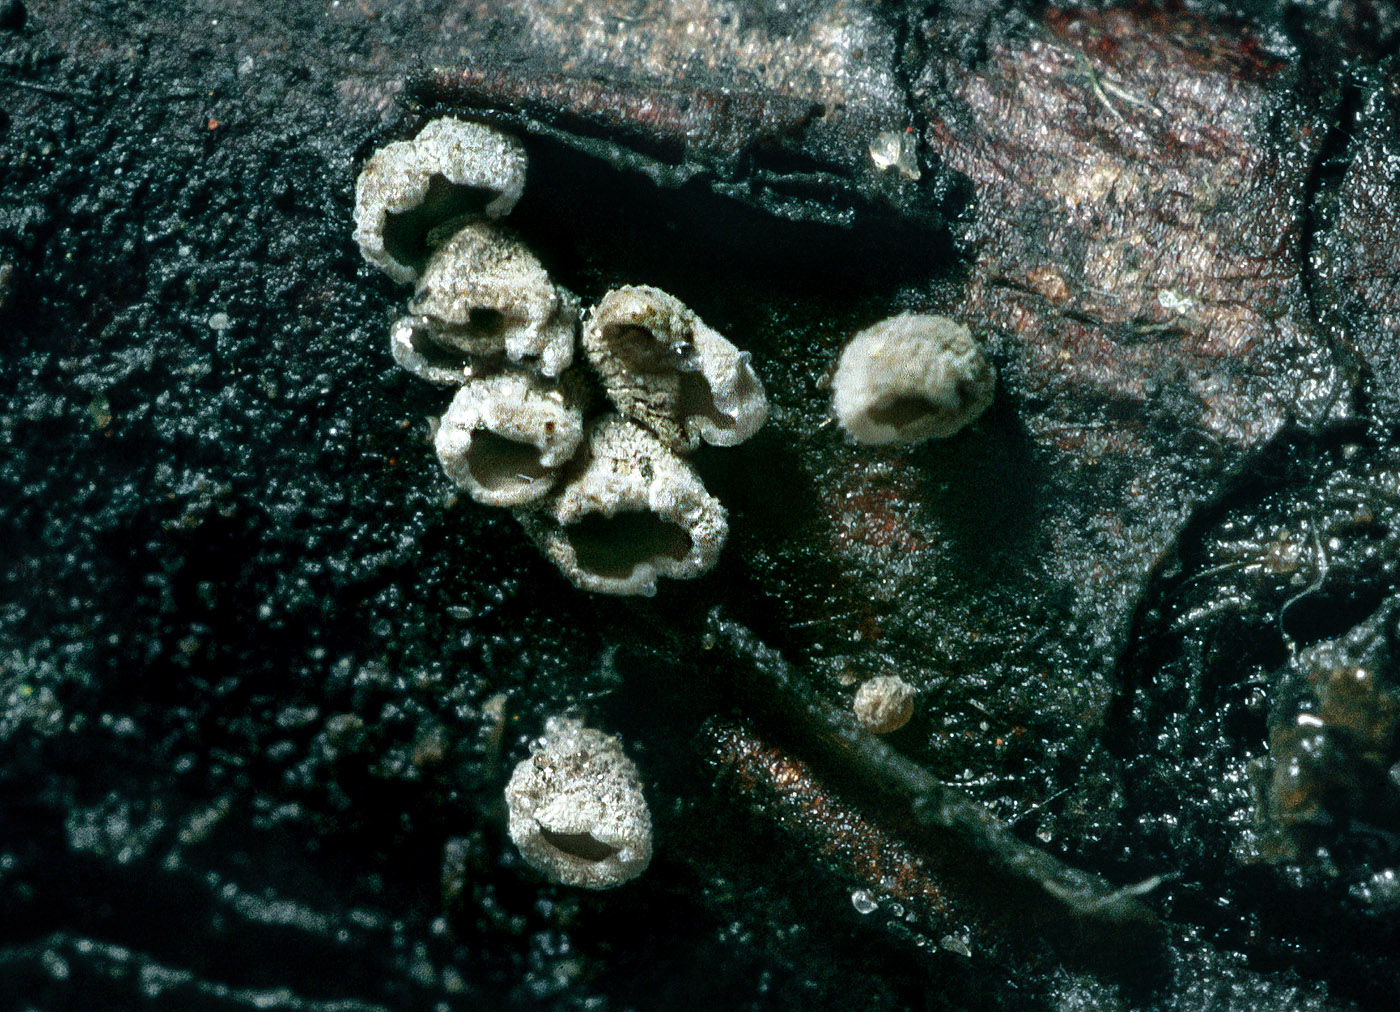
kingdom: Fungi
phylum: Basidiomycota
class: Agaricomycetes
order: Agaricales
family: Pleurotaceae
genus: Resupinatus
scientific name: Resupinatus griseopallidus
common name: ene-barkhat
